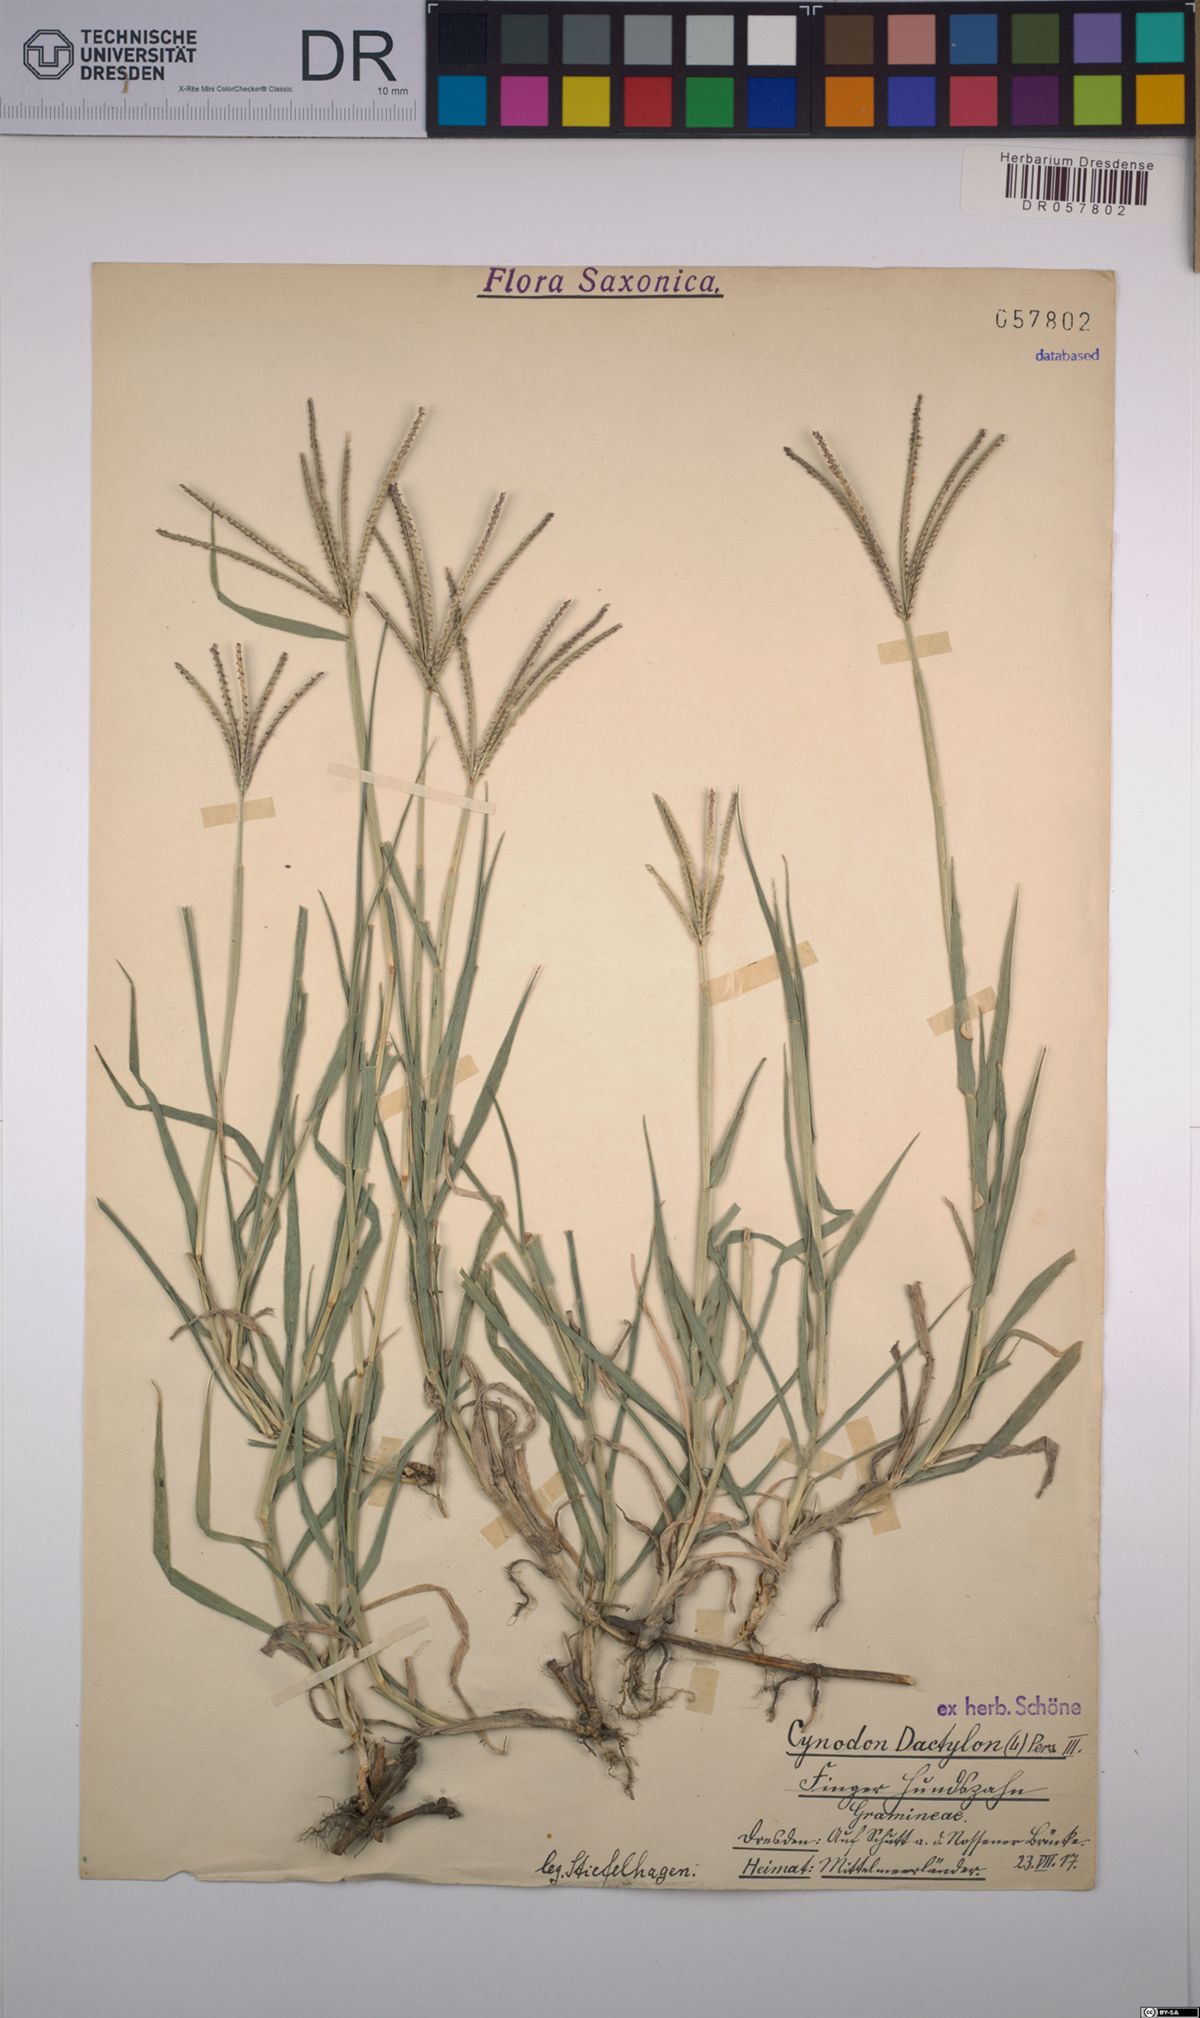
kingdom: Plantae
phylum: Tracheophyta
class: Liliopsida
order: Poales
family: Poaceae
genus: Cynodon
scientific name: Cynodon dactylon
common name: Bermuda grass
